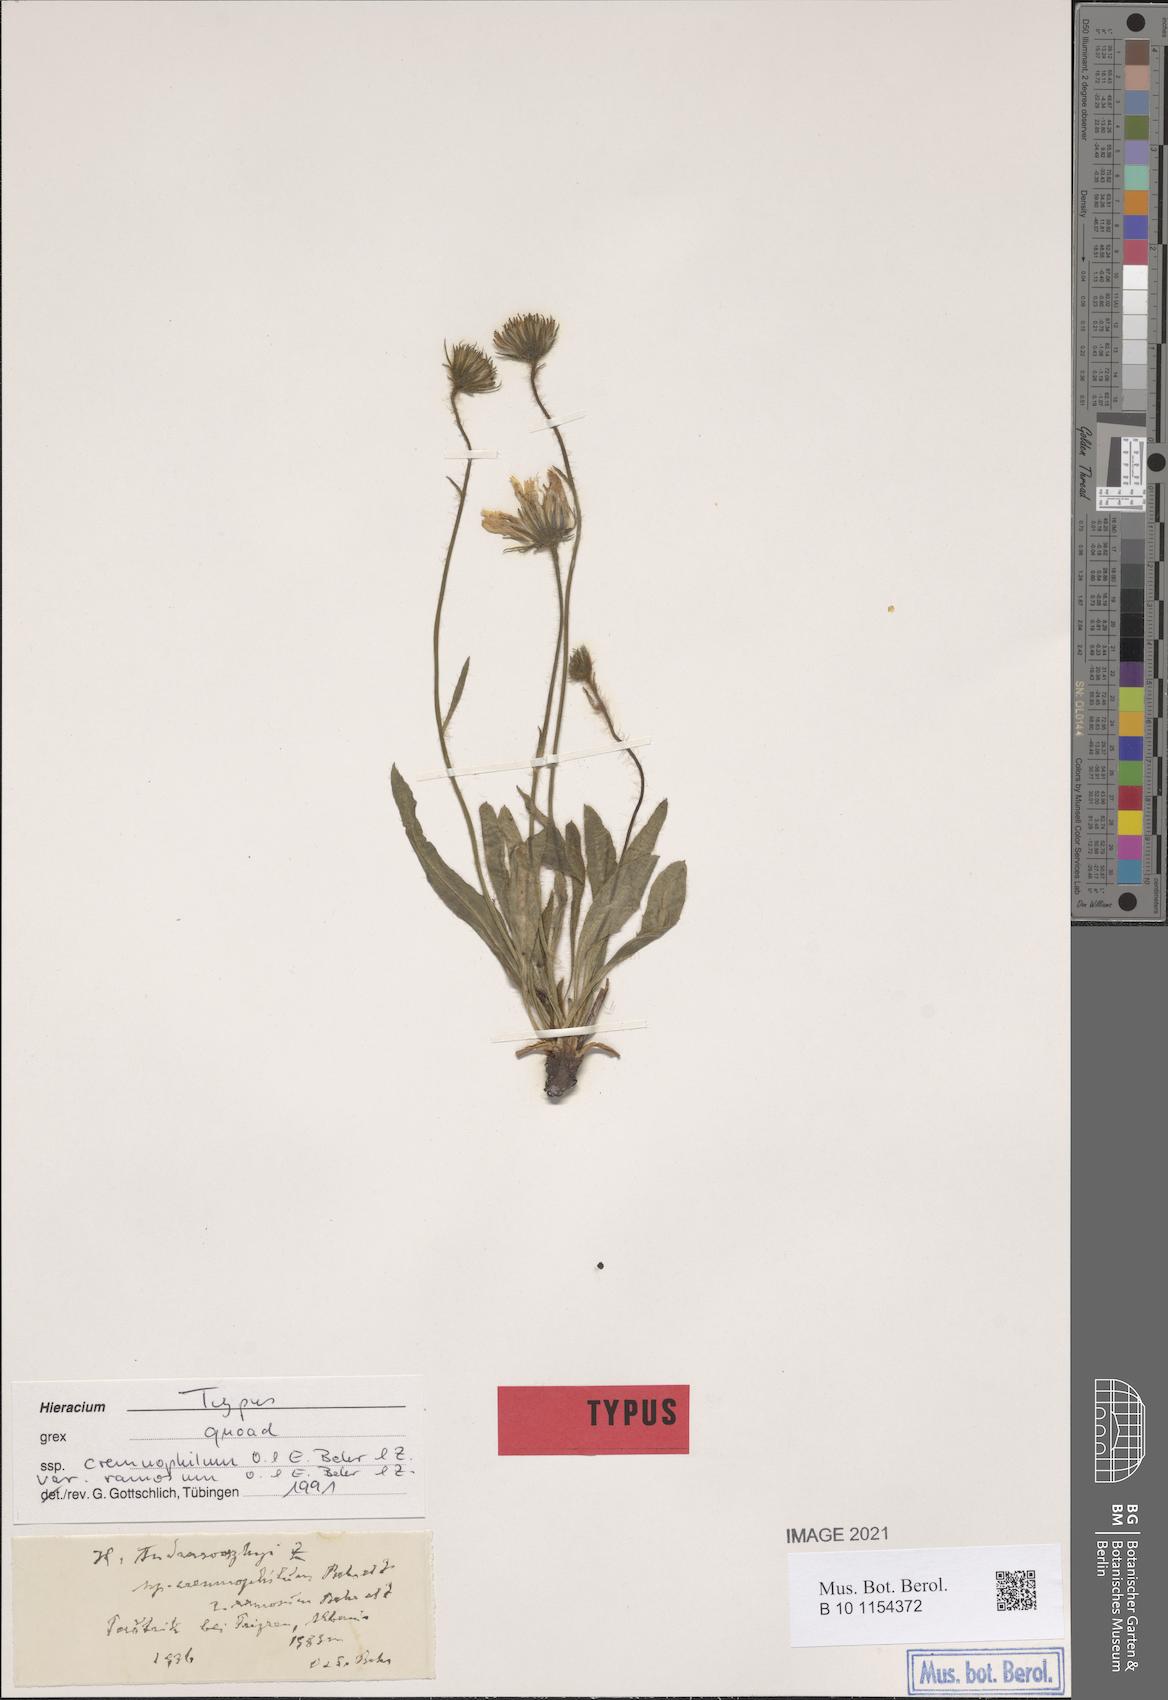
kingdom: Plantae
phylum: Tracheophyta
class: Magnoliopsida
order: Asterales
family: Asteraceae
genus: Hieracium
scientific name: Hieracium andrasovszkyi
